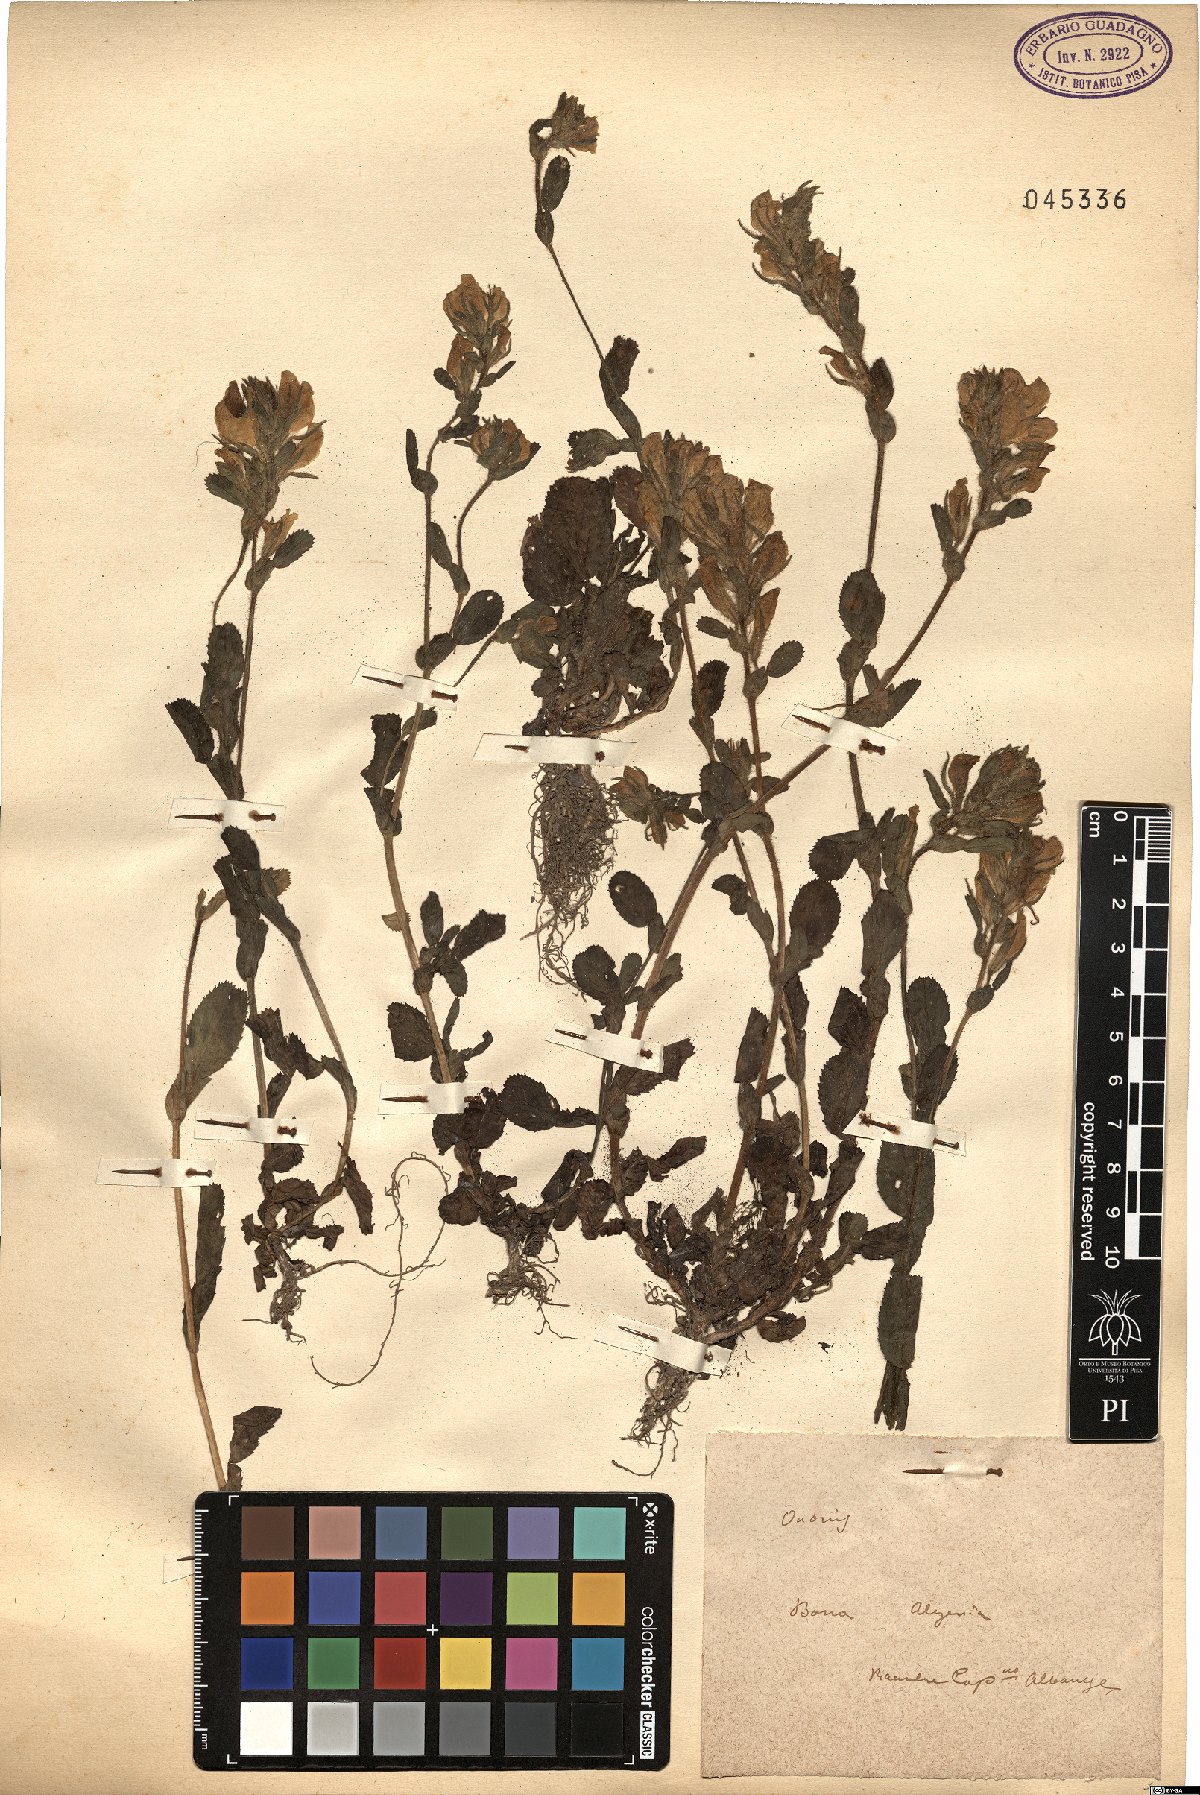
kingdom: Plantae
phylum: Tracheophyta
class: Magnoliopsida
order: Fabales
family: Fabaceae
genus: Ononis
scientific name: Ononis
